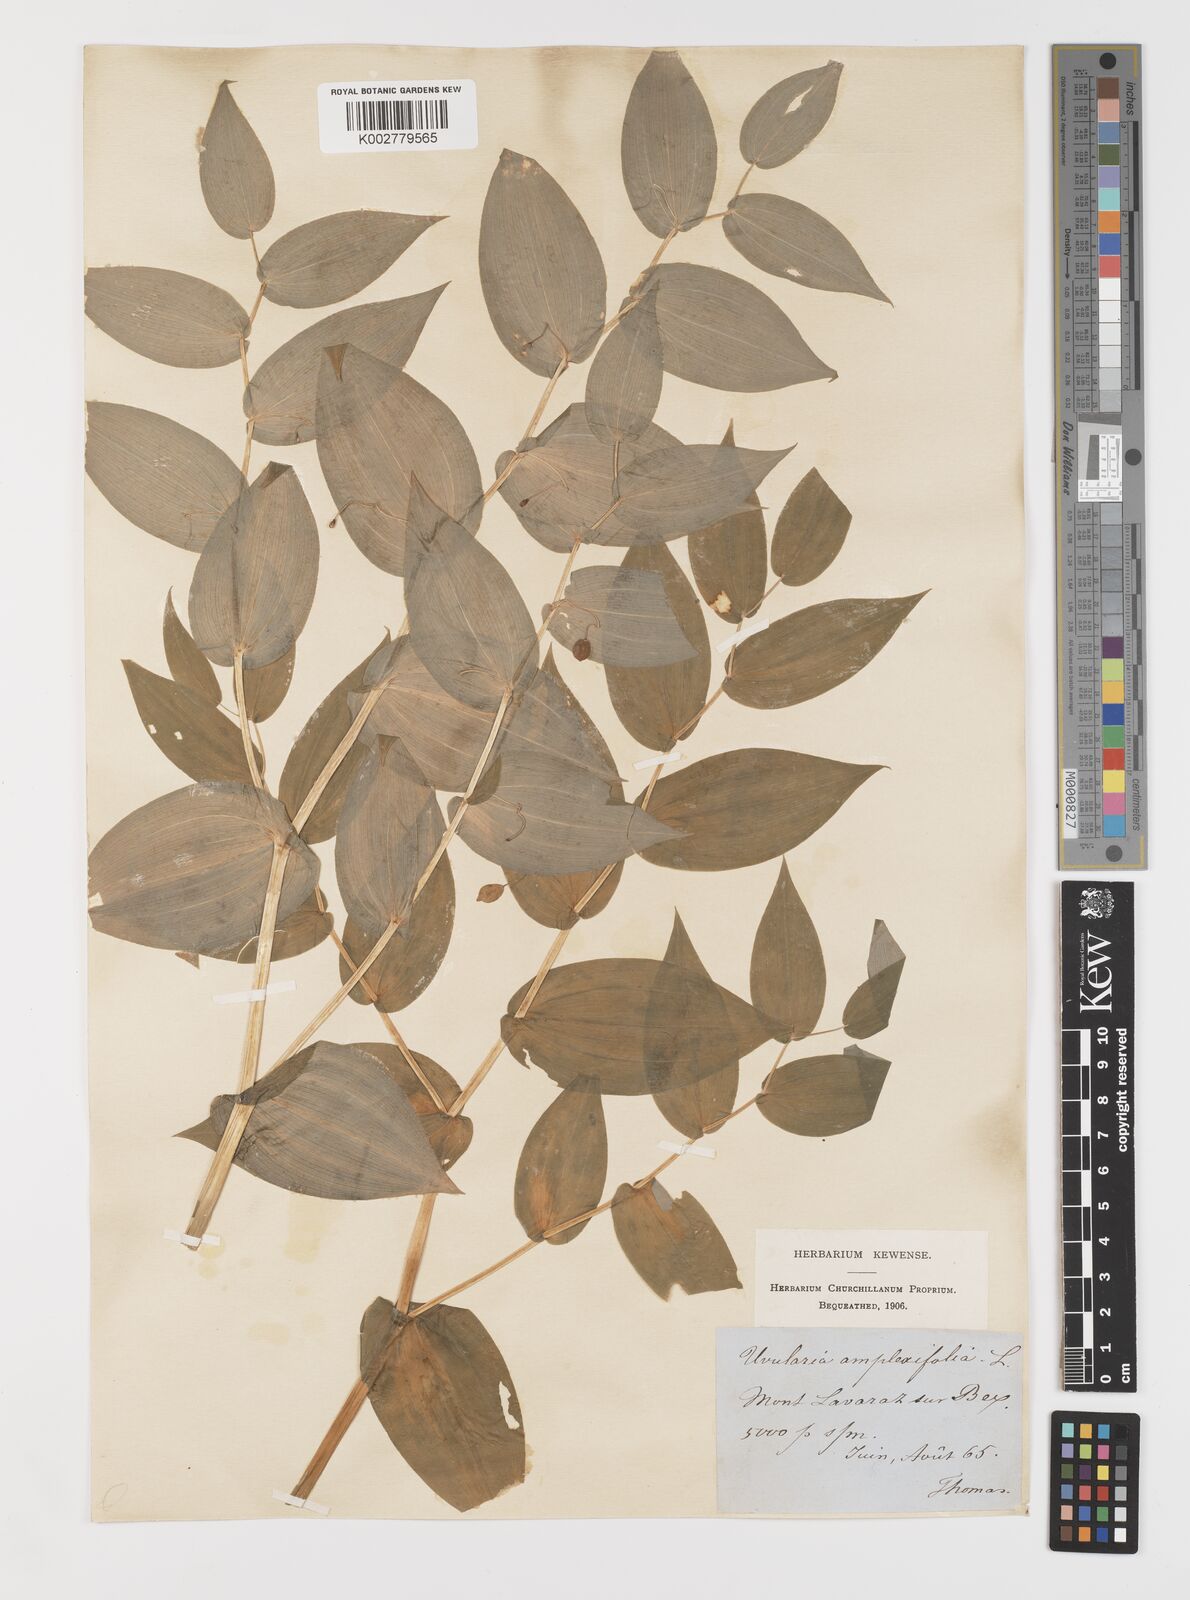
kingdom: Plantae
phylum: Tracheophyta
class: Liliopsida
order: Liliales
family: Colchicaceae
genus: Uvularia
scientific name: Uvularia grandiflora
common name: Bellwort
